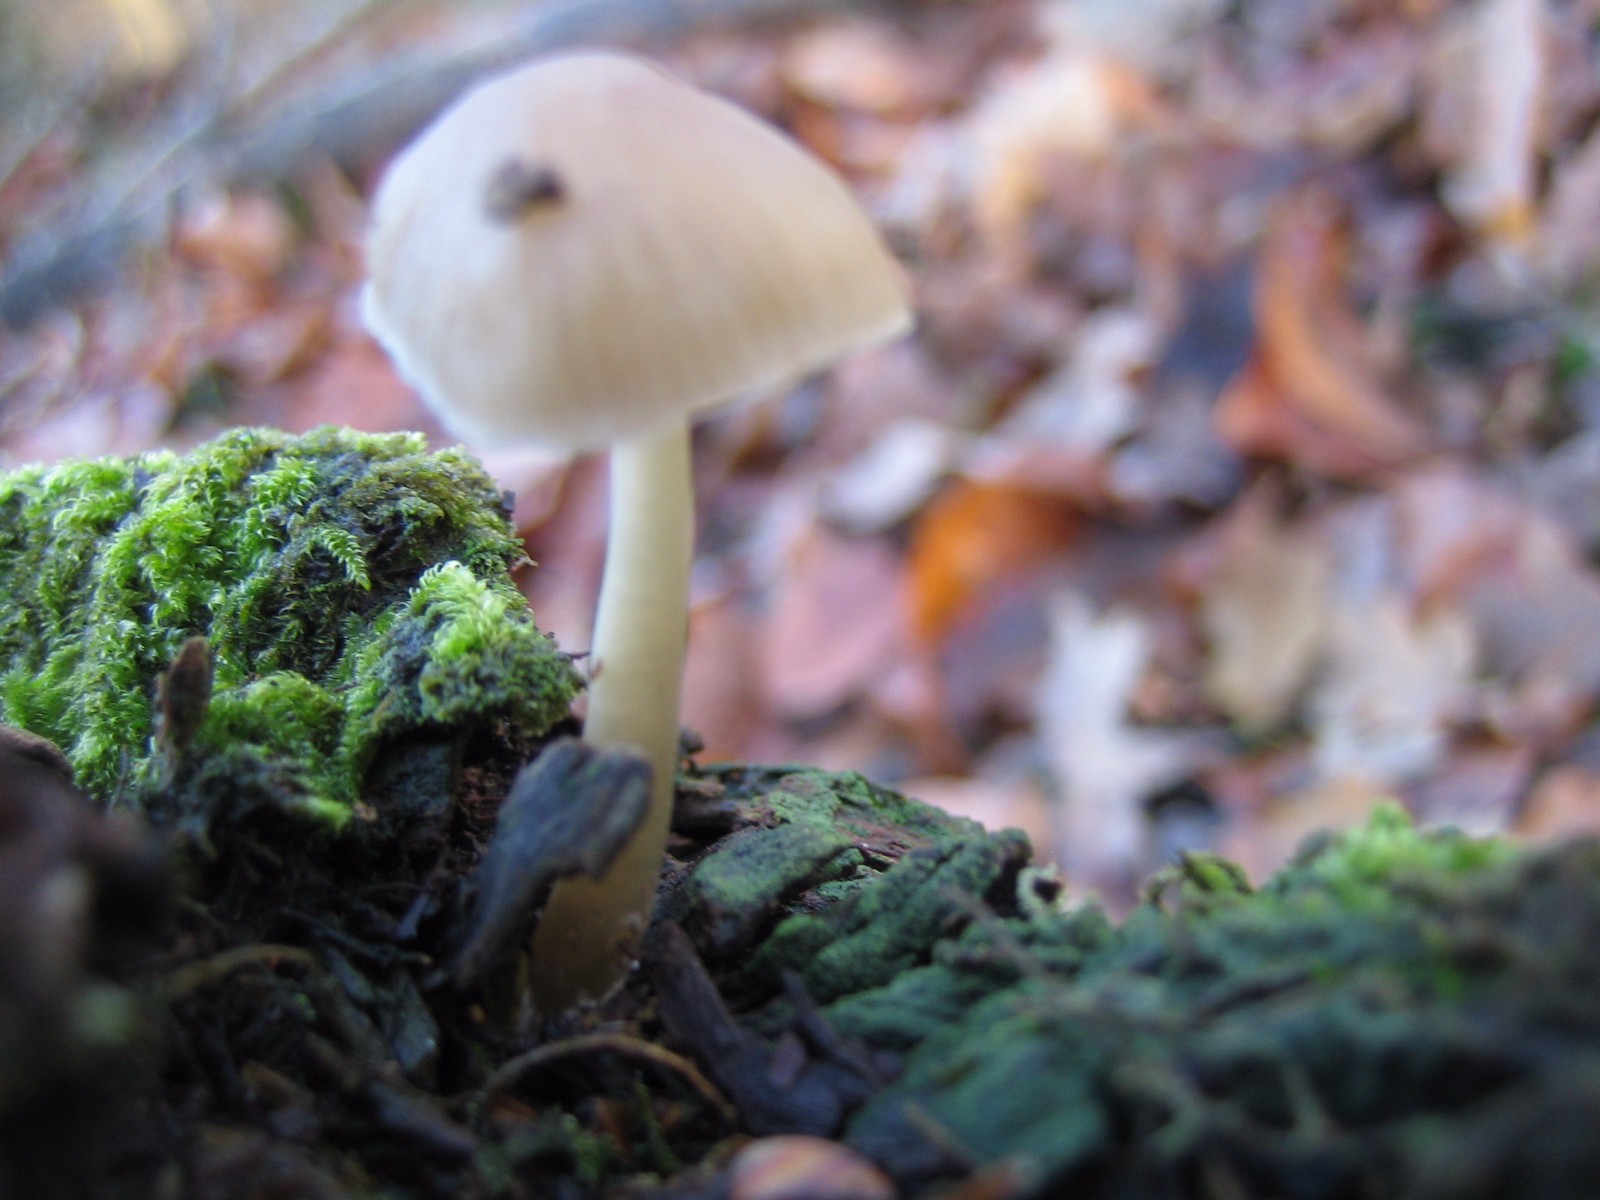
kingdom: Fungi
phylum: Basidiomycota
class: Agaricomycetes
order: Agaricales
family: Mycenaceae
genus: Mycena
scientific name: Mycena galericulata
